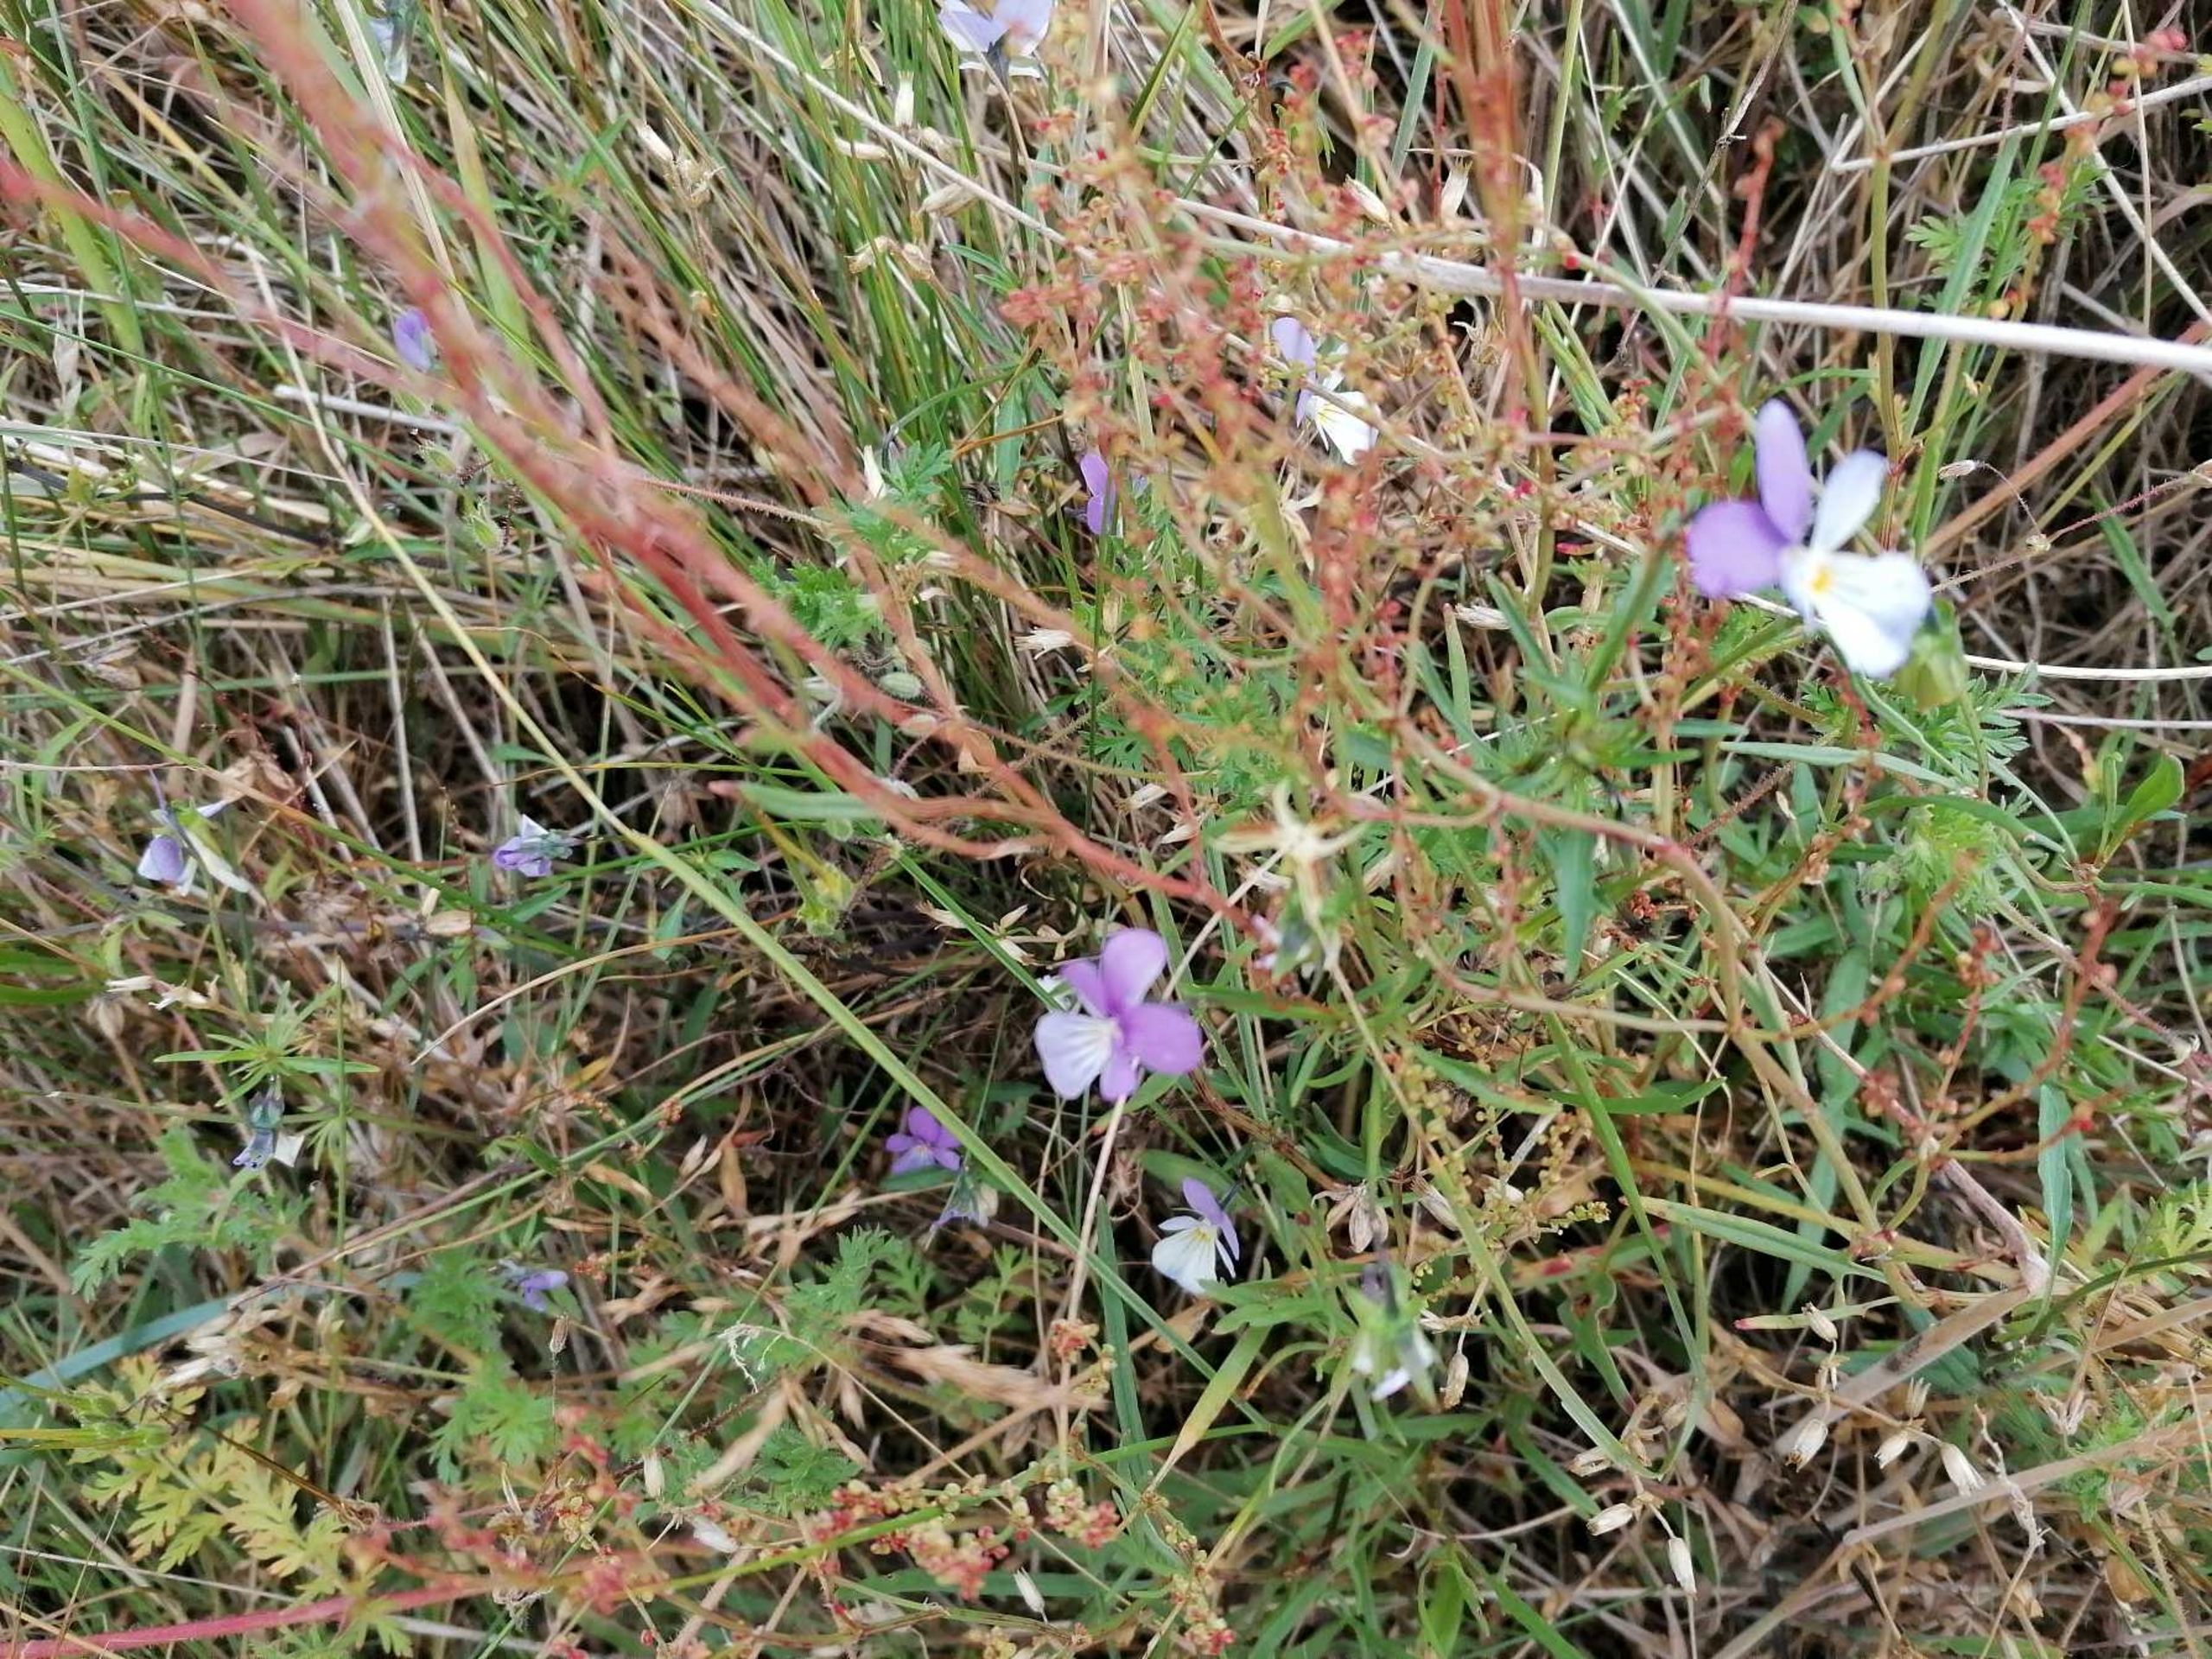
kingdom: Plantae
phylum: Tracheophyta
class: Magnoliopsida
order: Malpighiales
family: Violaceae
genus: Viola
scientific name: Viola tricolor
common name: Stedmoderblomst
